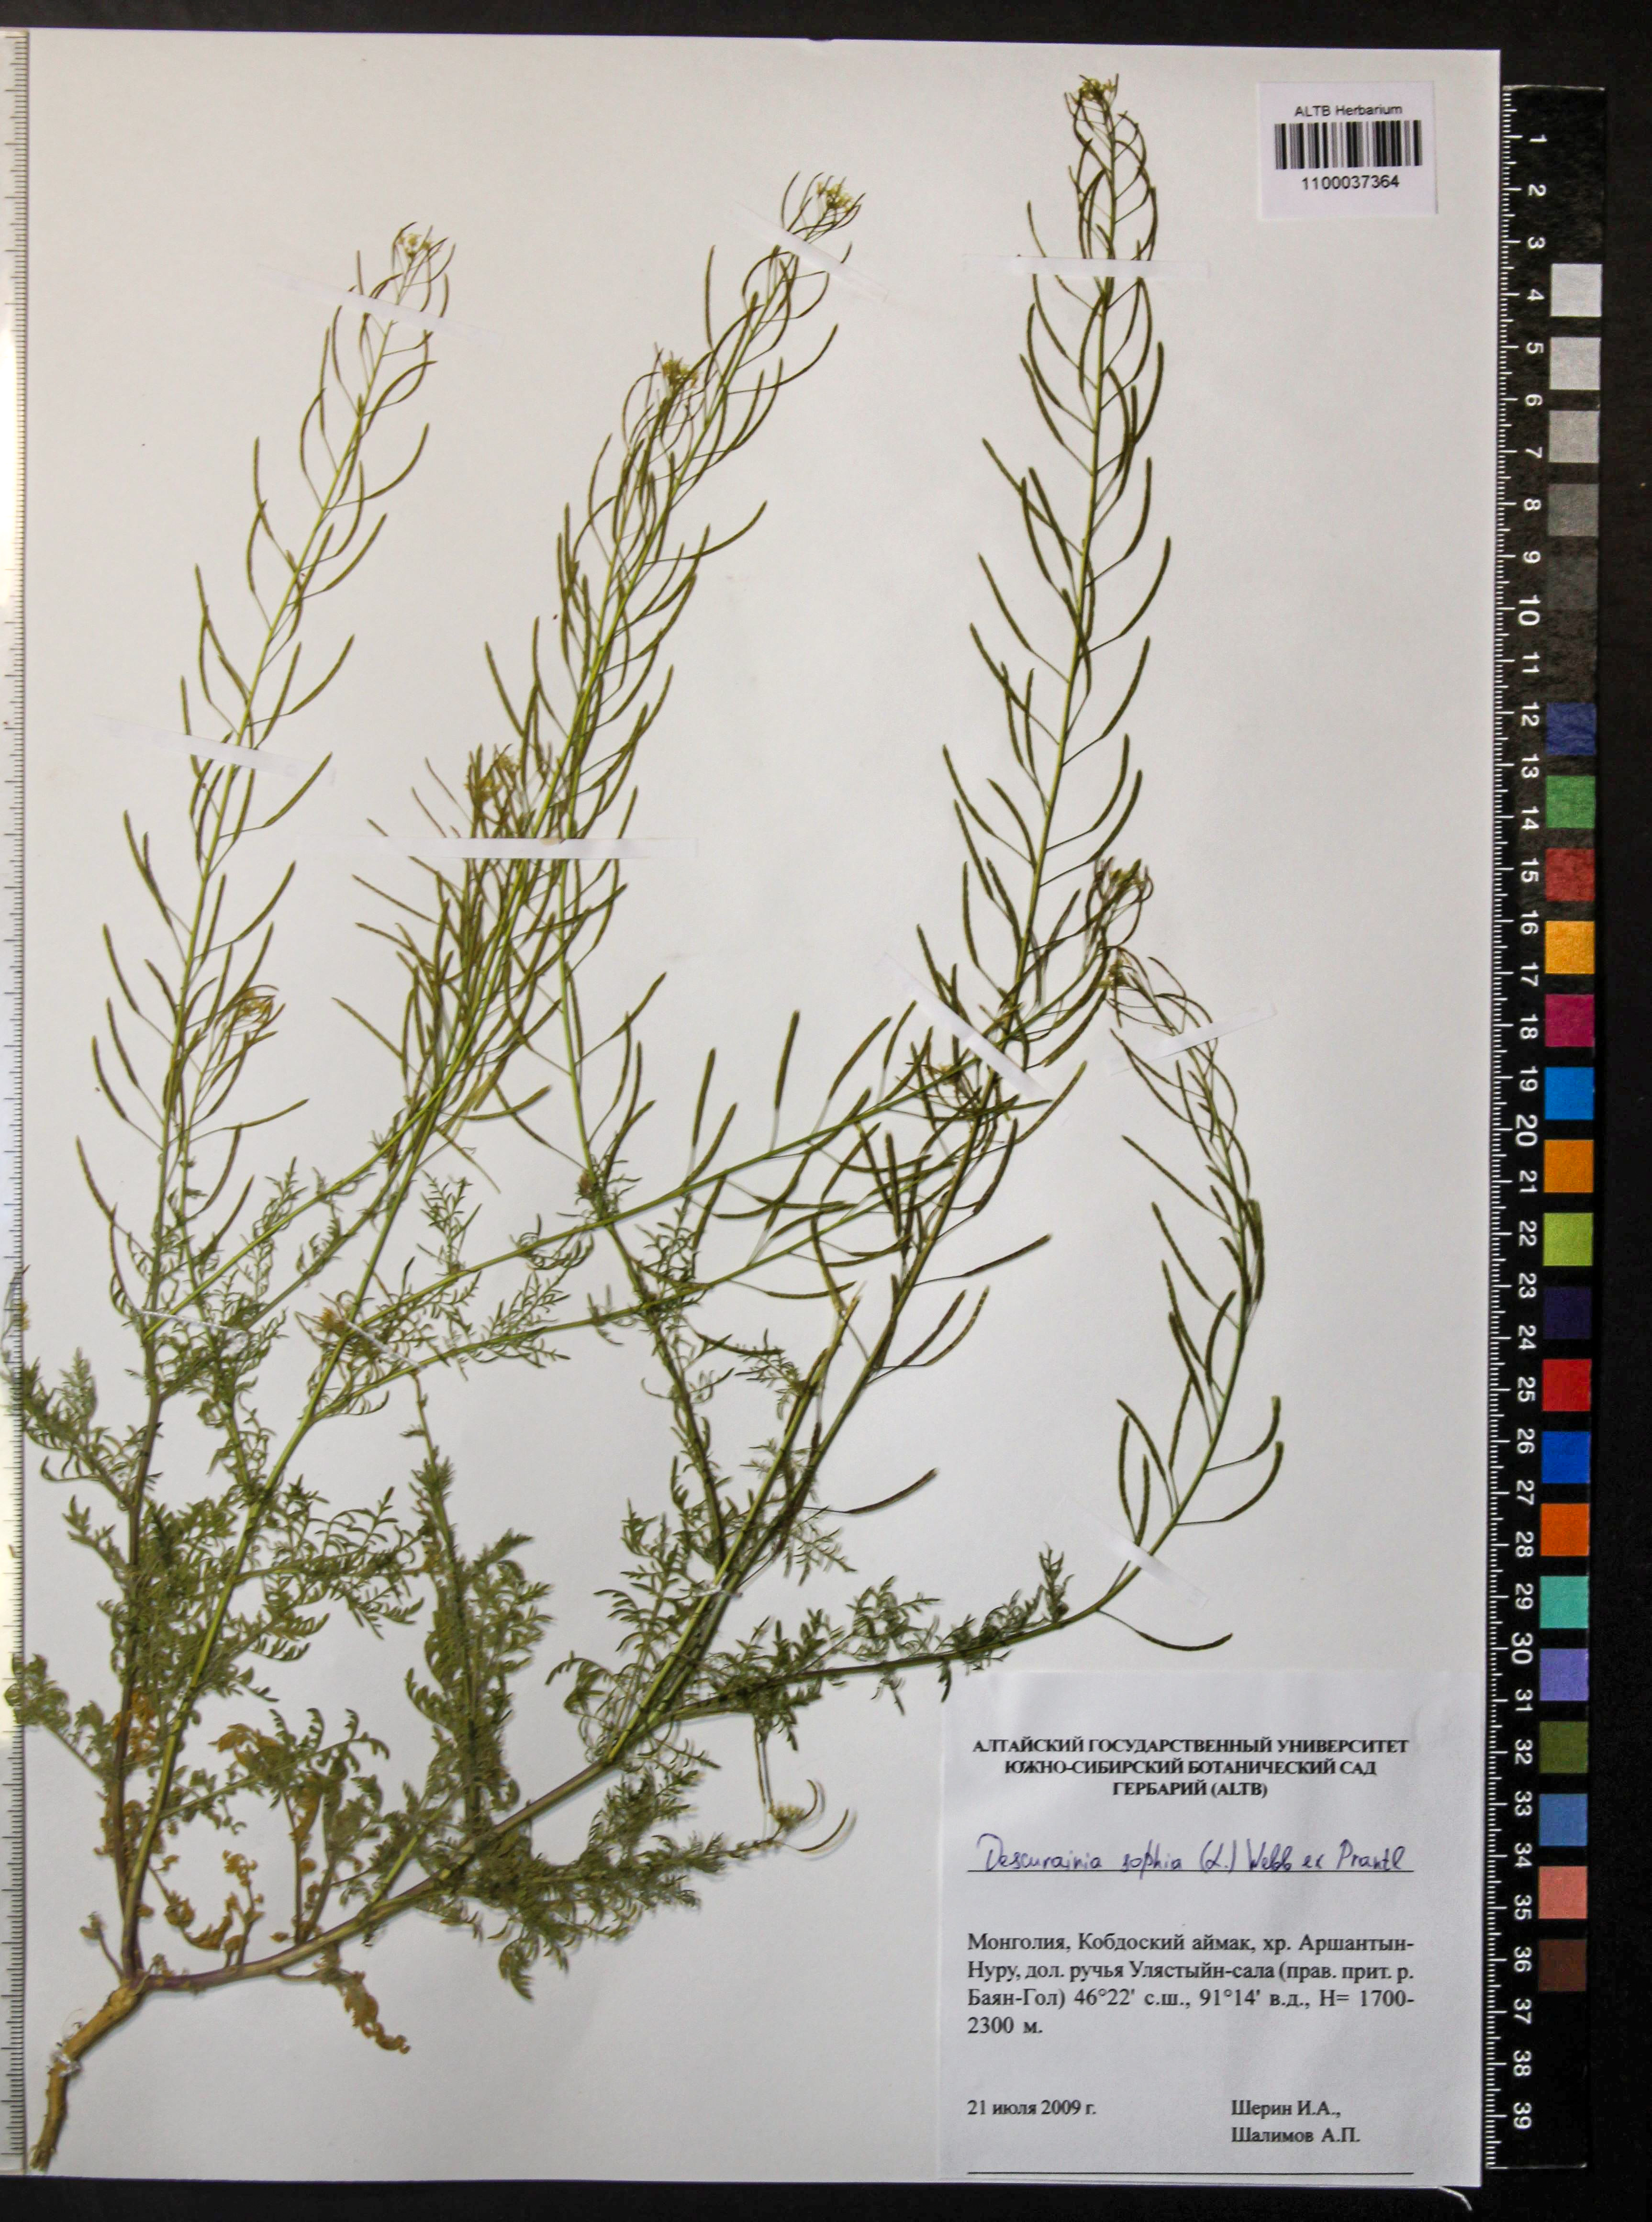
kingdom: Plantae
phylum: Tracheophyta
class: Magnoliopsida
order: Brassicales
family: Brassicaceae
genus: Descurainia
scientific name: Descurainia sophia
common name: Flixweed
